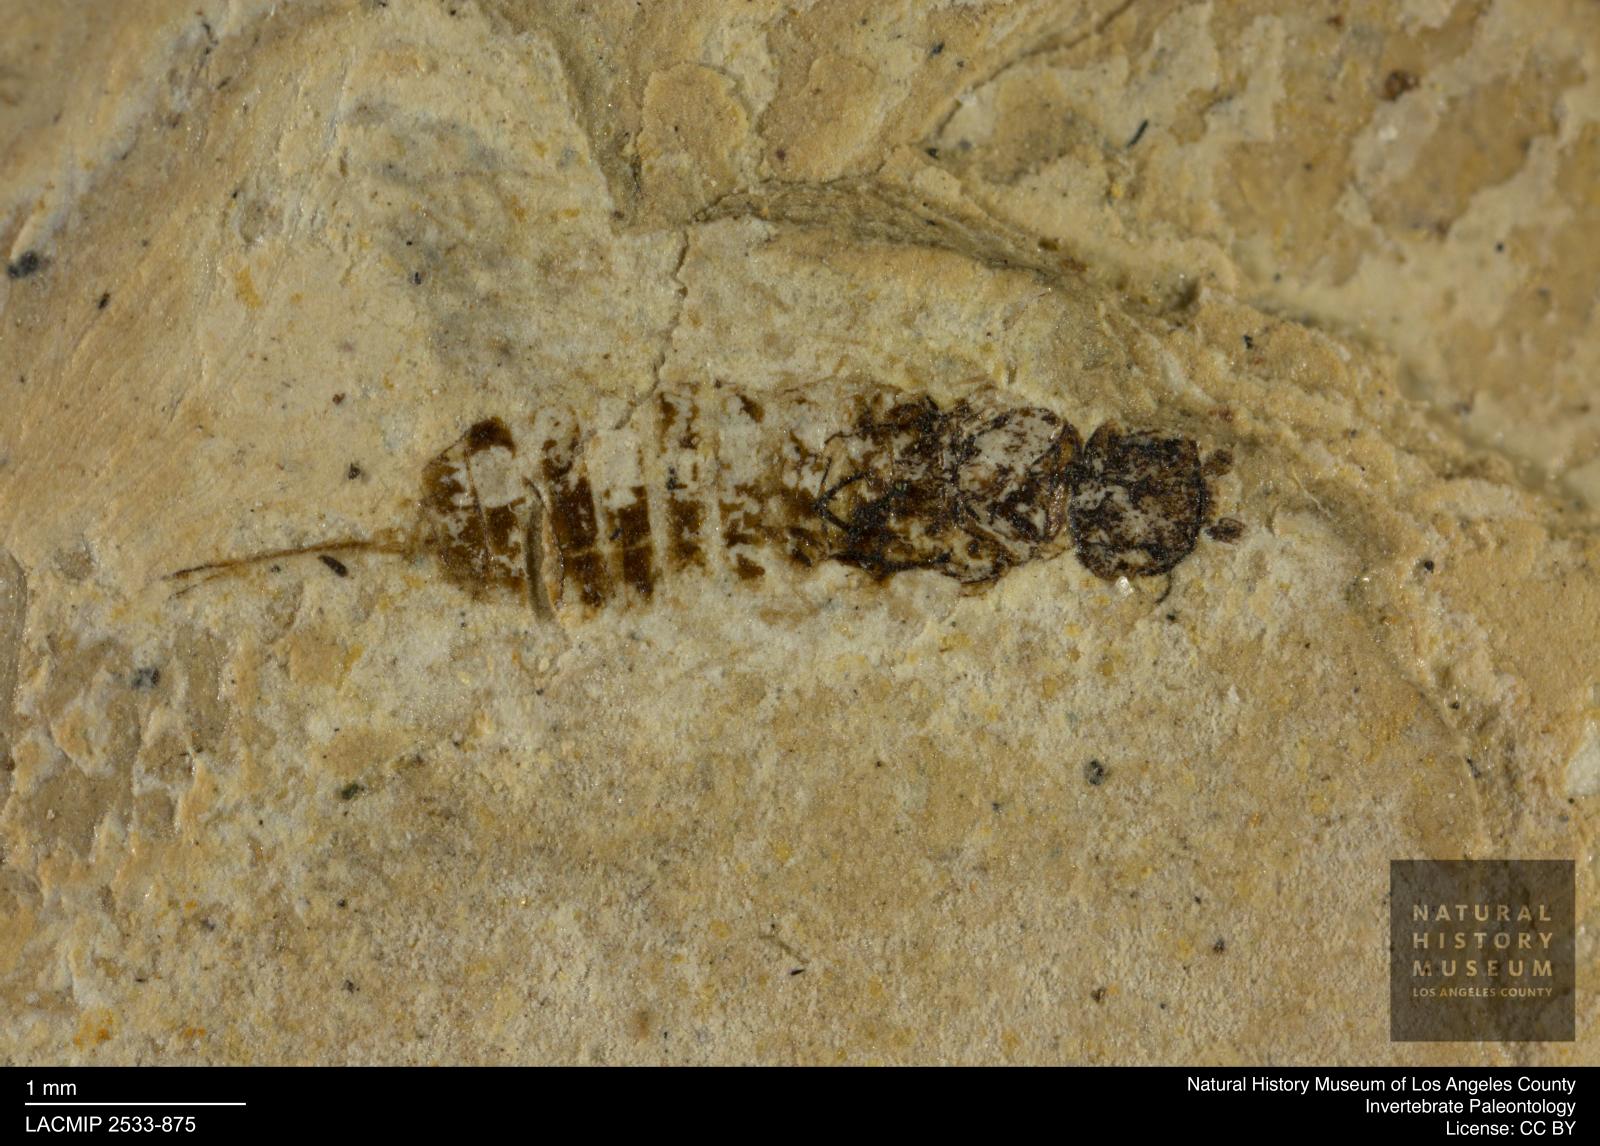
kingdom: Animalia
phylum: Arthropoda
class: Insecta
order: Hymenoptera
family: Xyelidae
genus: Xyela
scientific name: Xyela latipennis
